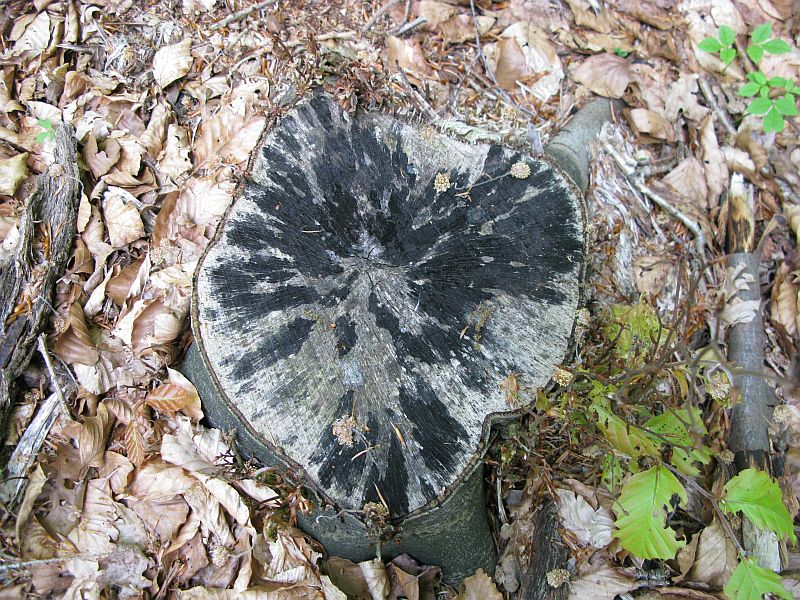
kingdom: Fungi
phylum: Ascomycota
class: Leotiomycetes
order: Helotiales
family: Helotiaceae
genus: Bispora
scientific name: Bispora pallescens
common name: måtte-snitskive
